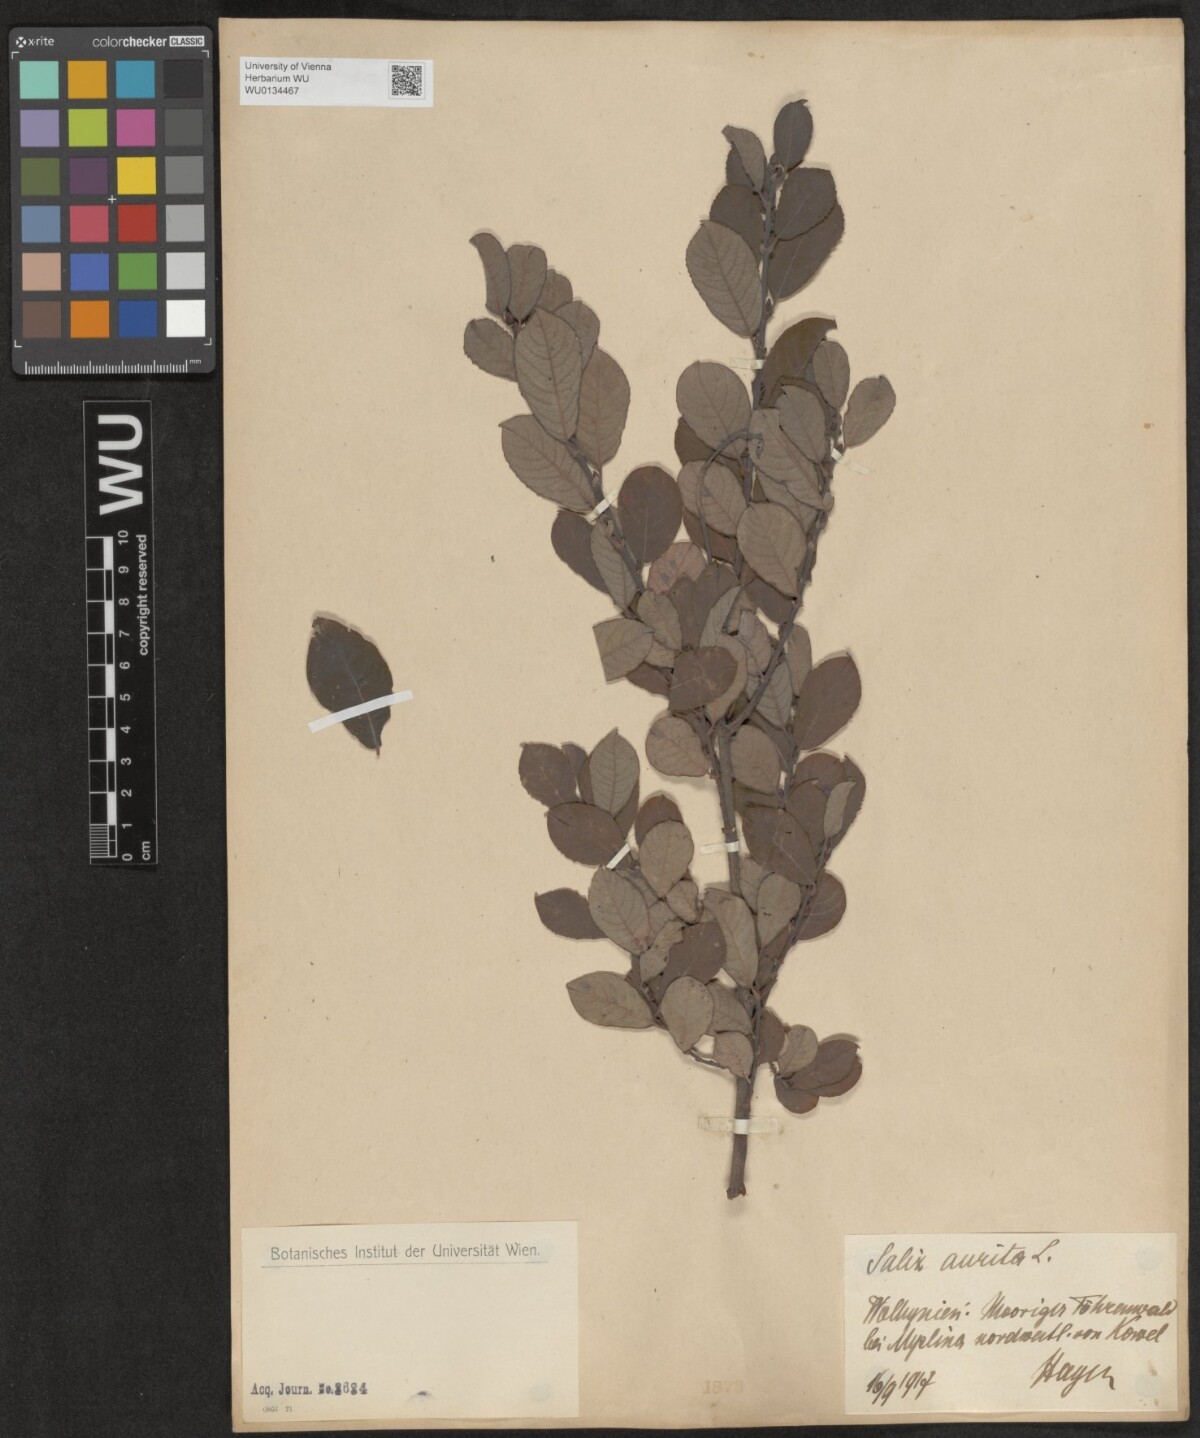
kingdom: Plantae
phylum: Tracheophyta
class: Magnoliopsida
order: Malpighiales
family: Salicaceae
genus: Salix
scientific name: Salix aurita
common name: Eared willow
